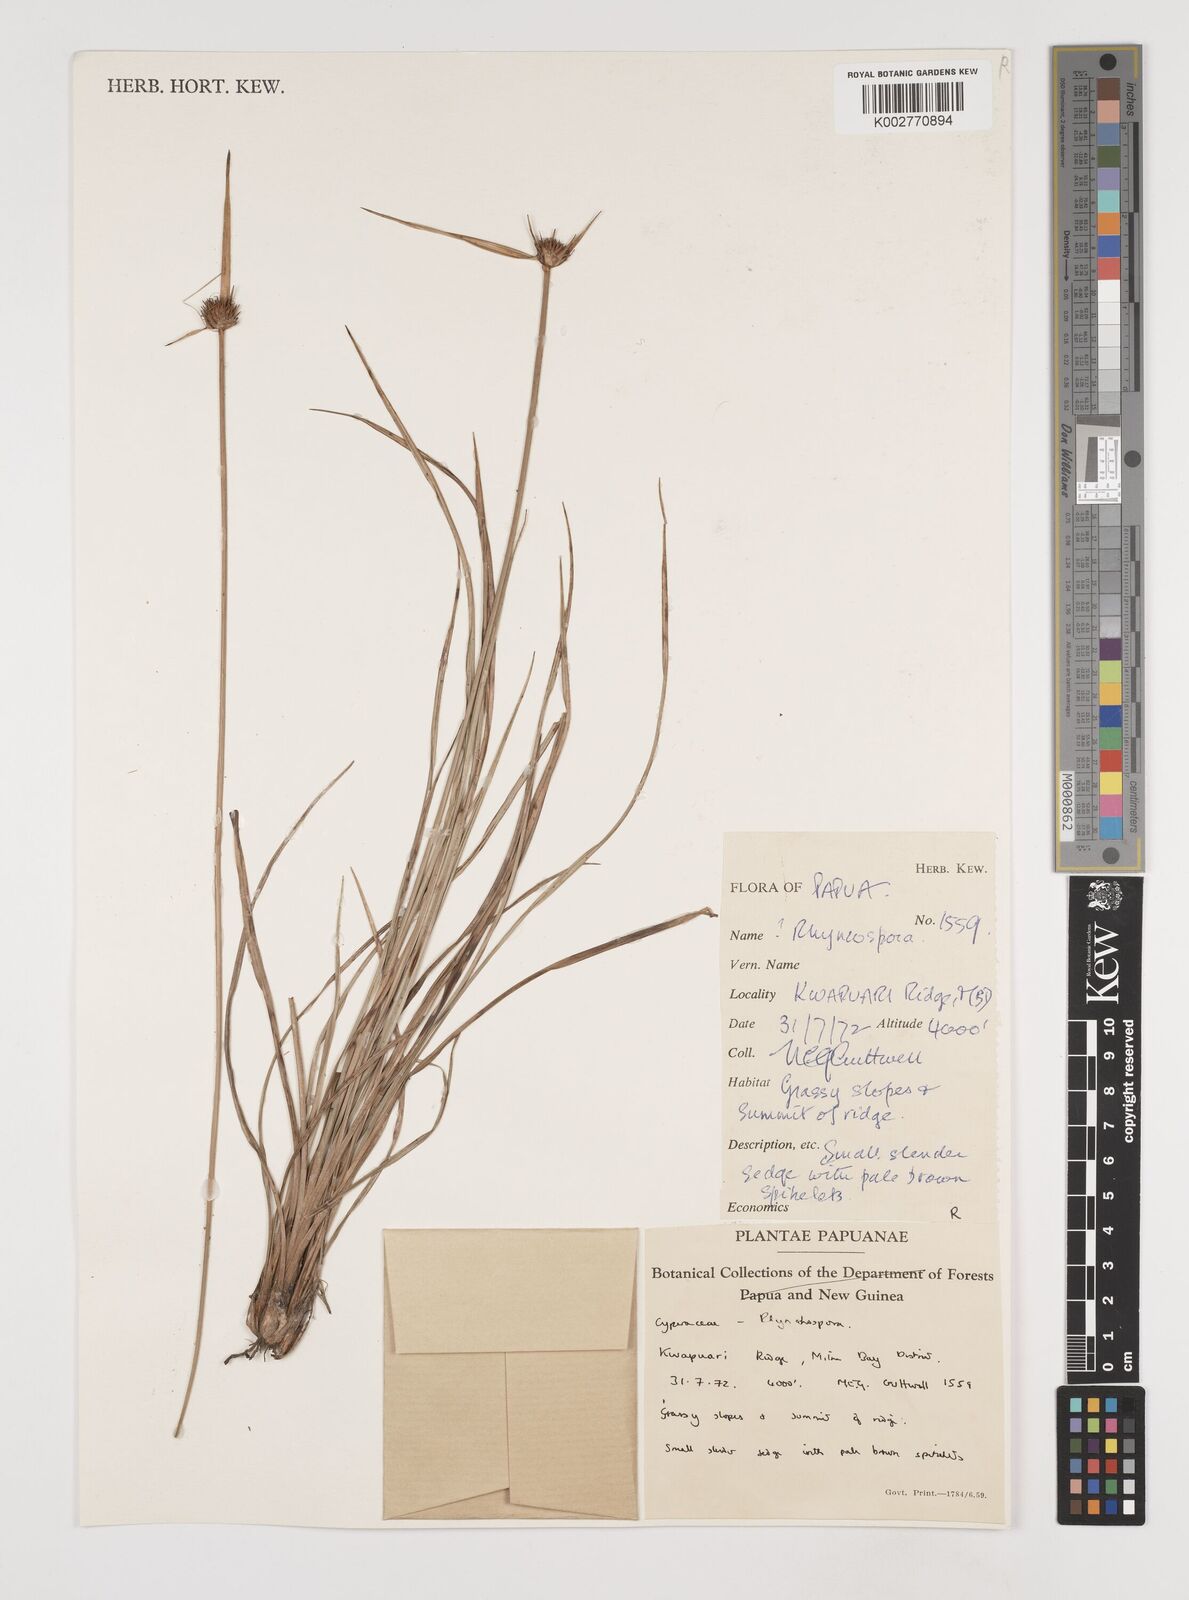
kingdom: Plantae
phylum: Tracheophyta
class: Liliopsida
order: Poales
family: Cyperaceae
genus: Rhynchospora
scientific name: Rhynchospora rubra
